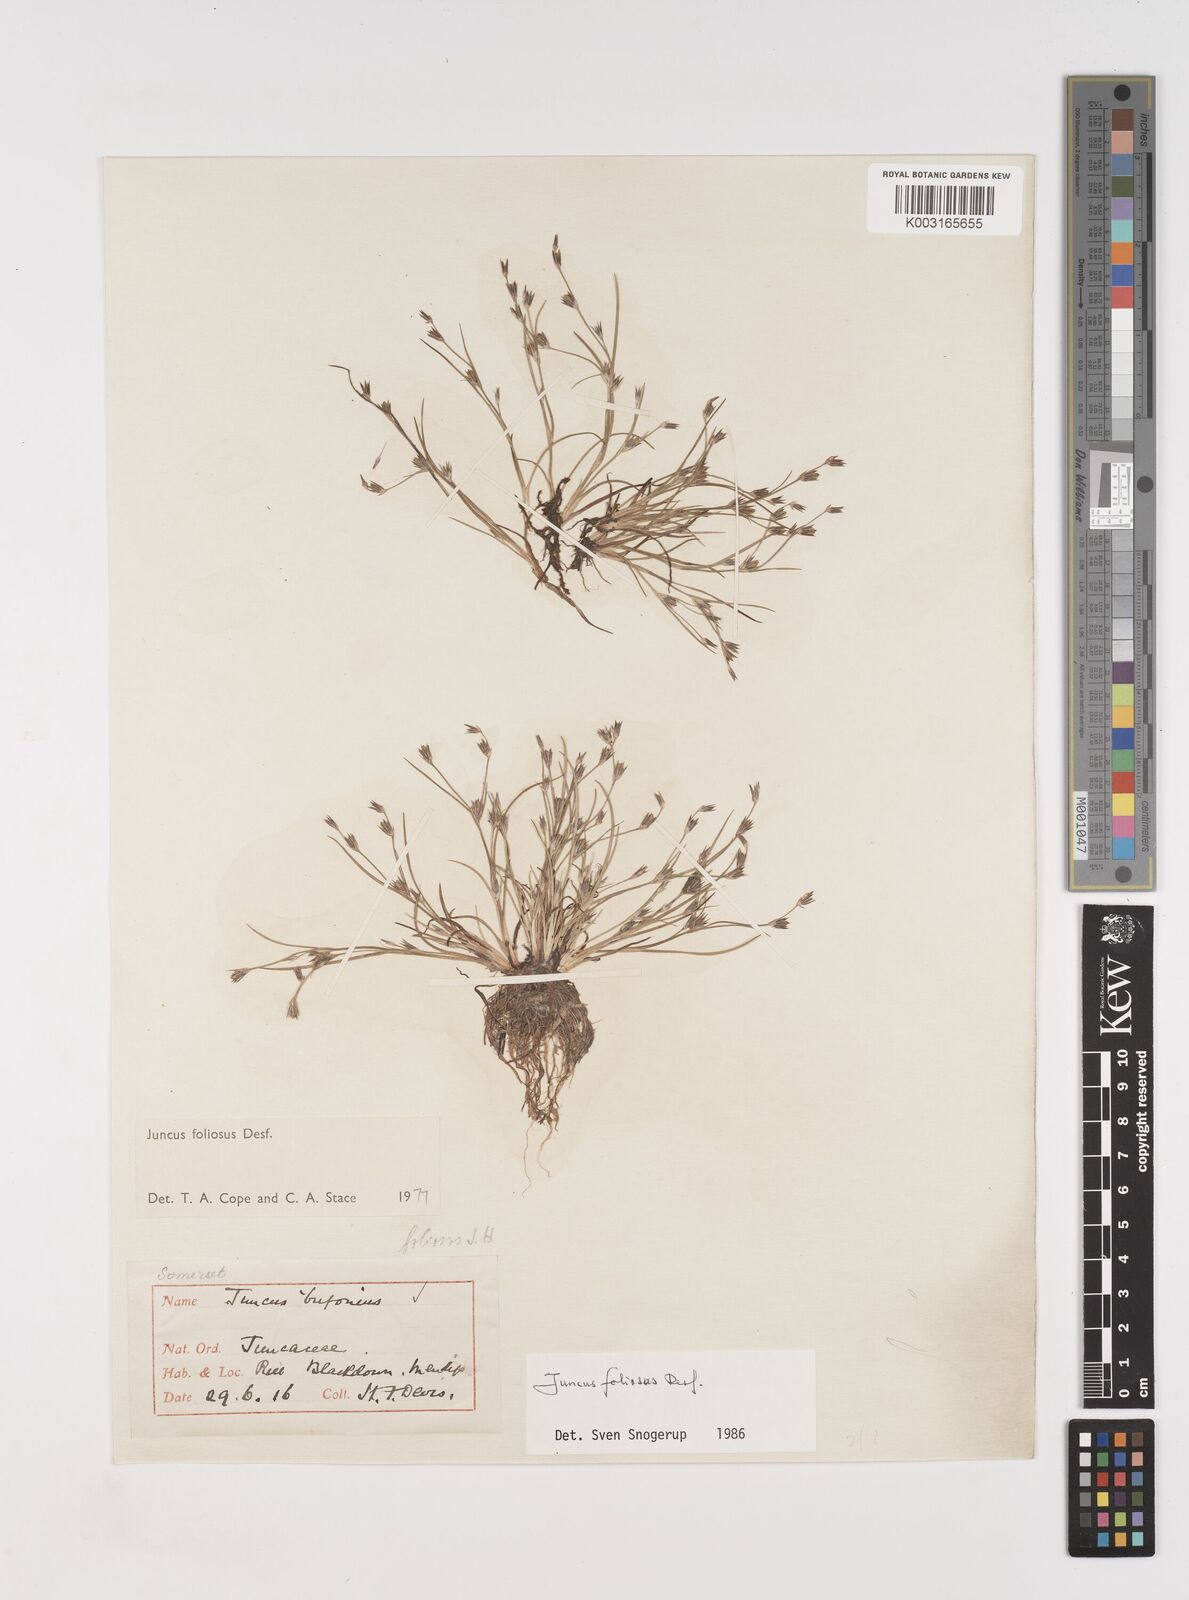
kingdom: Plantae
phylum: Tracheophyta
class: Liliopsida
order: Poales
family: Juncaceae
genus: Juncus
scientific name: Juncus foliosus
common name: Leafy rush
